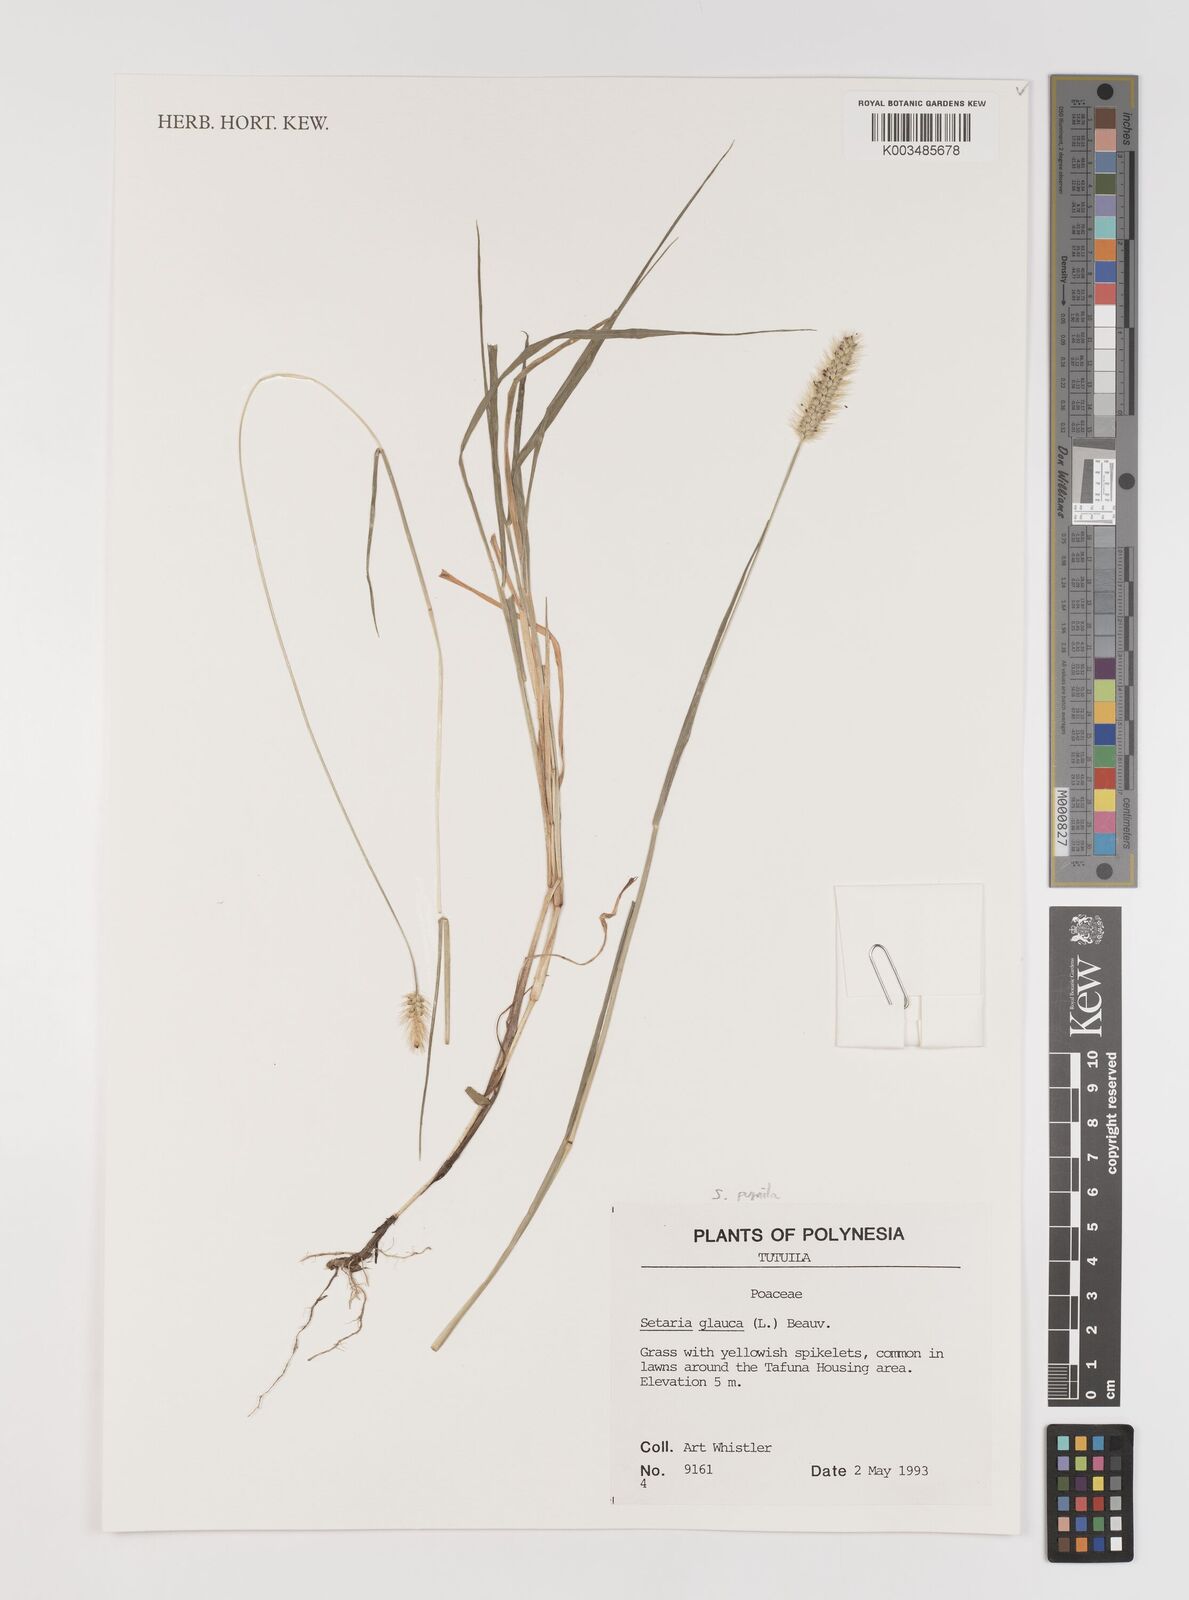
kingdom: Plantae
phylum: Tracheophyta
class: Liliopsida
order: Poales
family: Poaceae
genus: Setaria
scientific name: Setaria pumila
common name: Yellow bristle-grass
